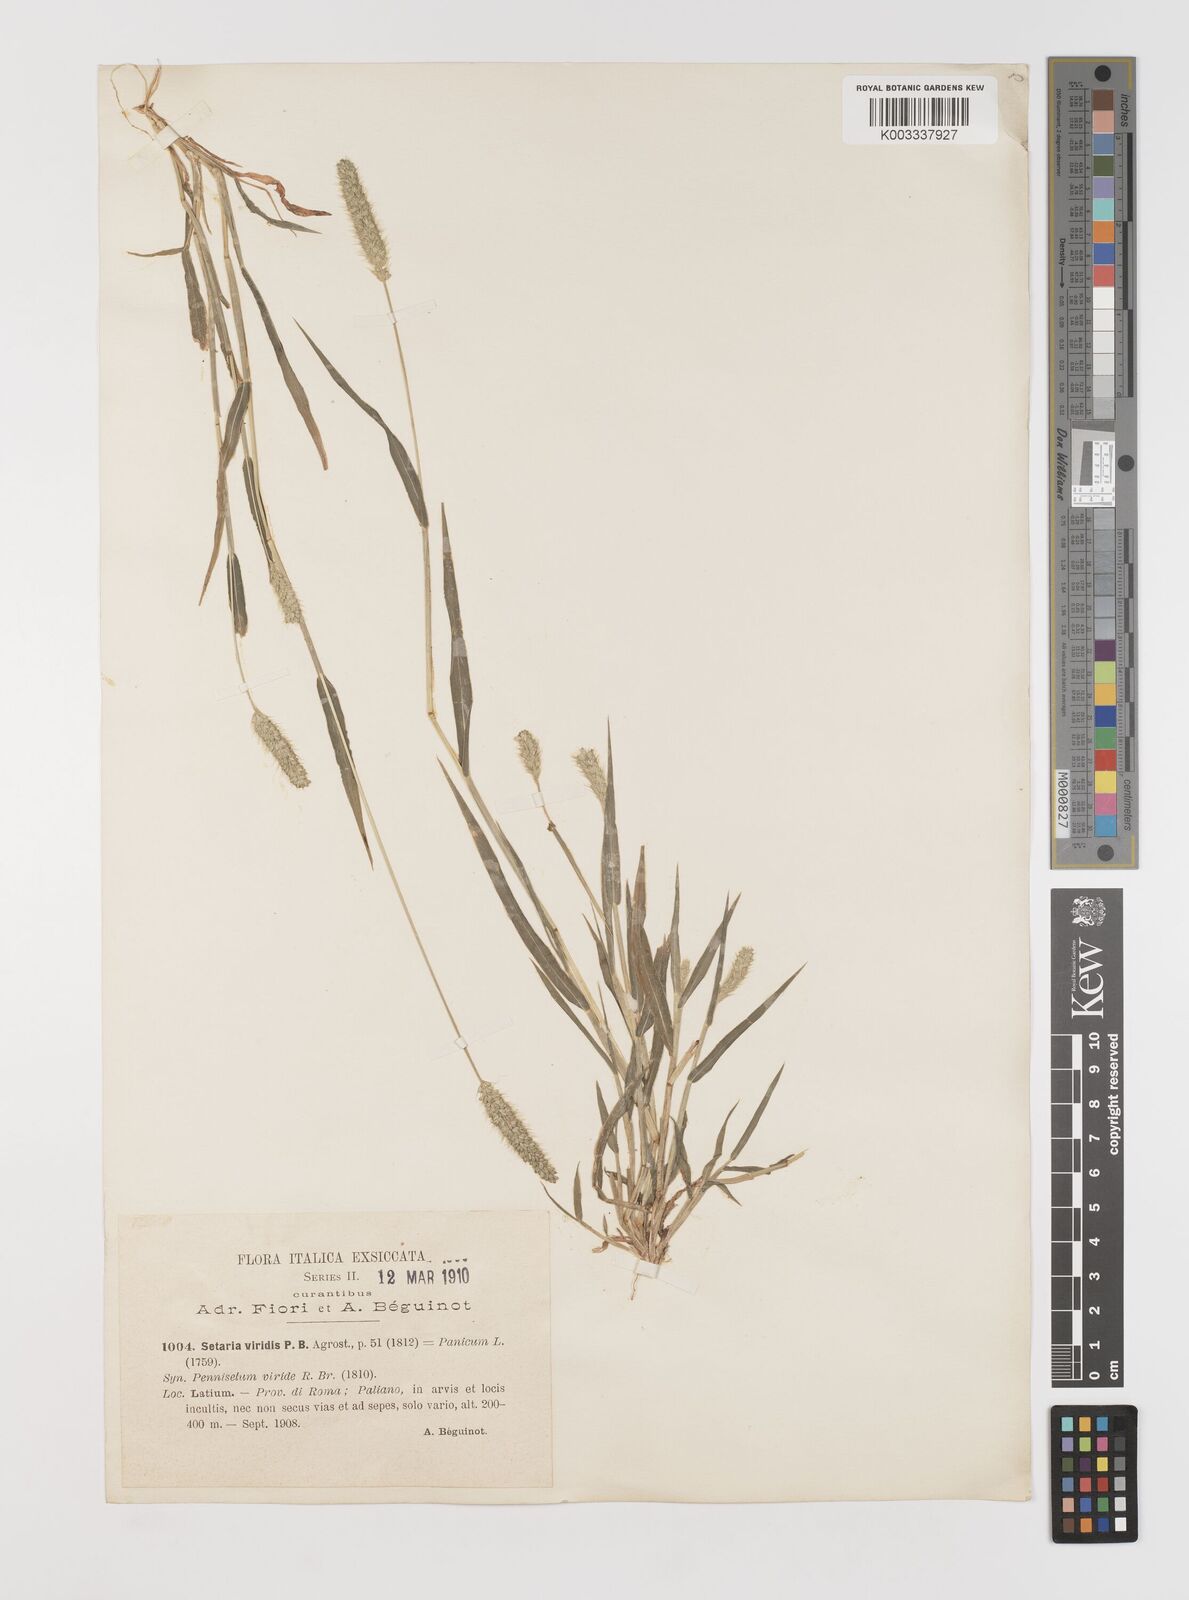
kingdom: Plantae
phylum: Tracheophyta
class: Liliopsida
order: Poales
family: Poaceae
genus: Setaria
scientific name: Setaria viridis
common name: Green bristlegrass
